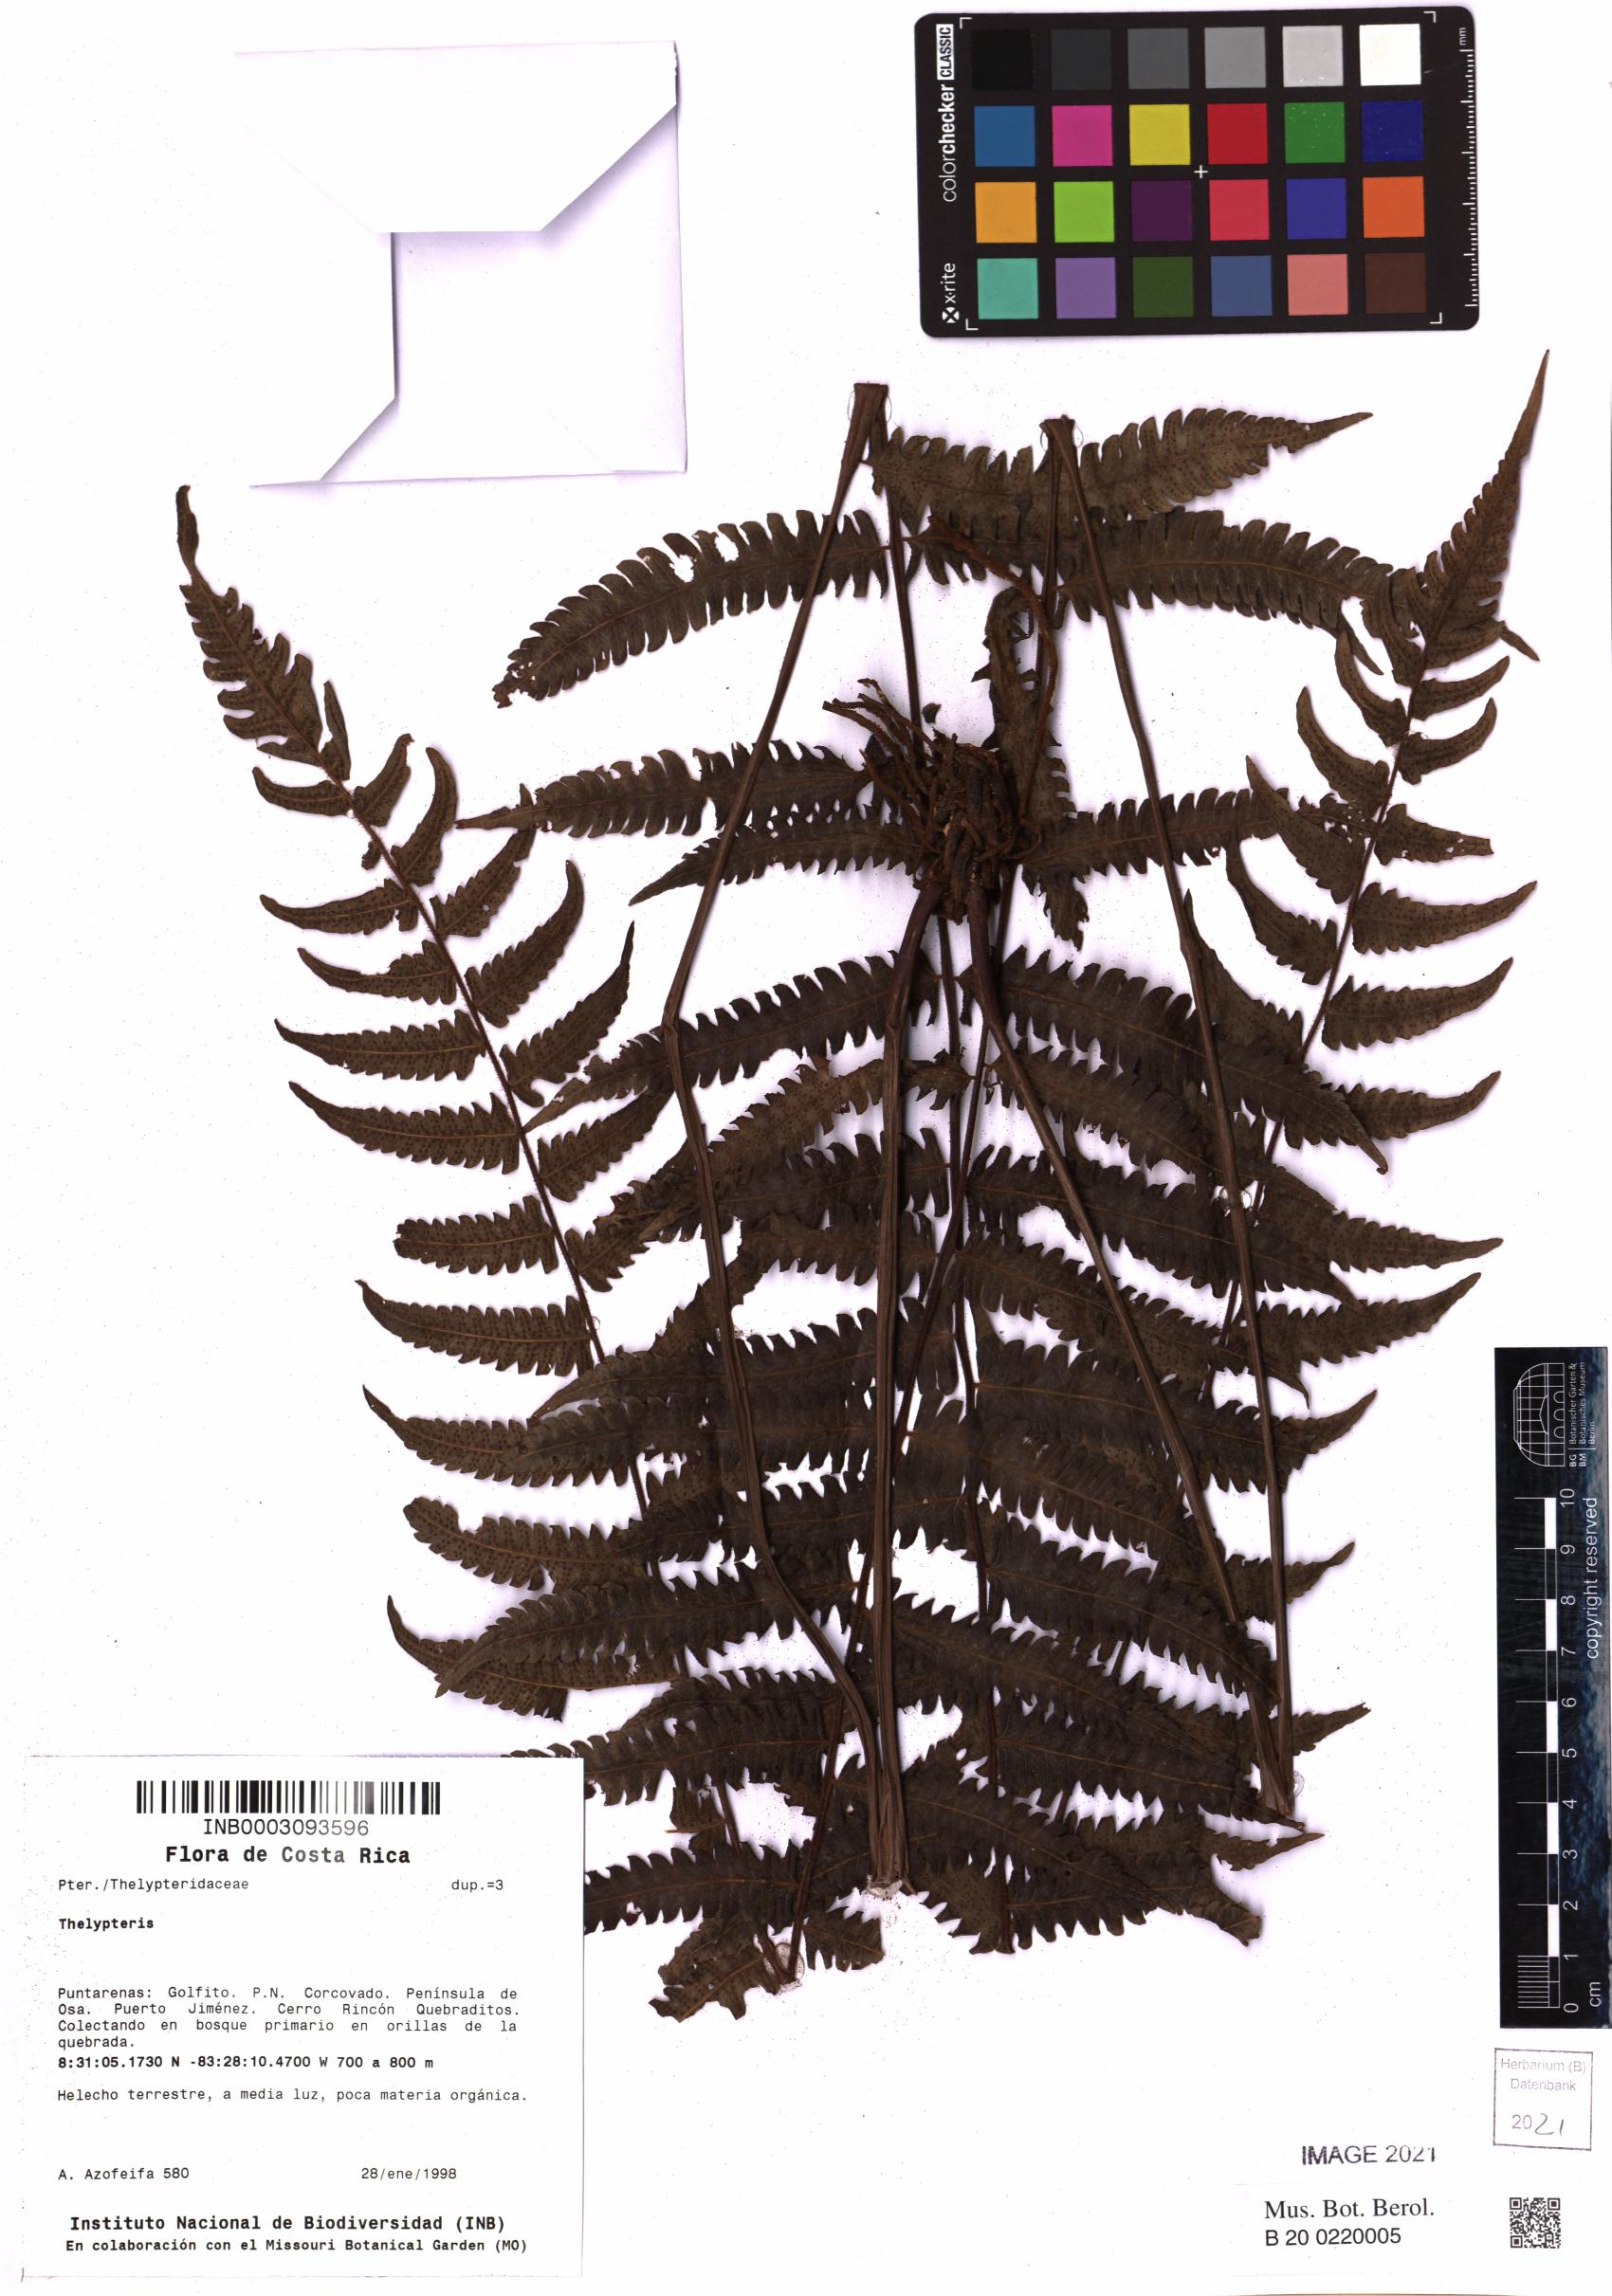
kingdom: Plantae
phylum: Tracheophyta
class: Polypodiopsida
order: Polypodiales
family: Thelypteridaceae
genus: Thelypteris
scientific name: Thelypteris
